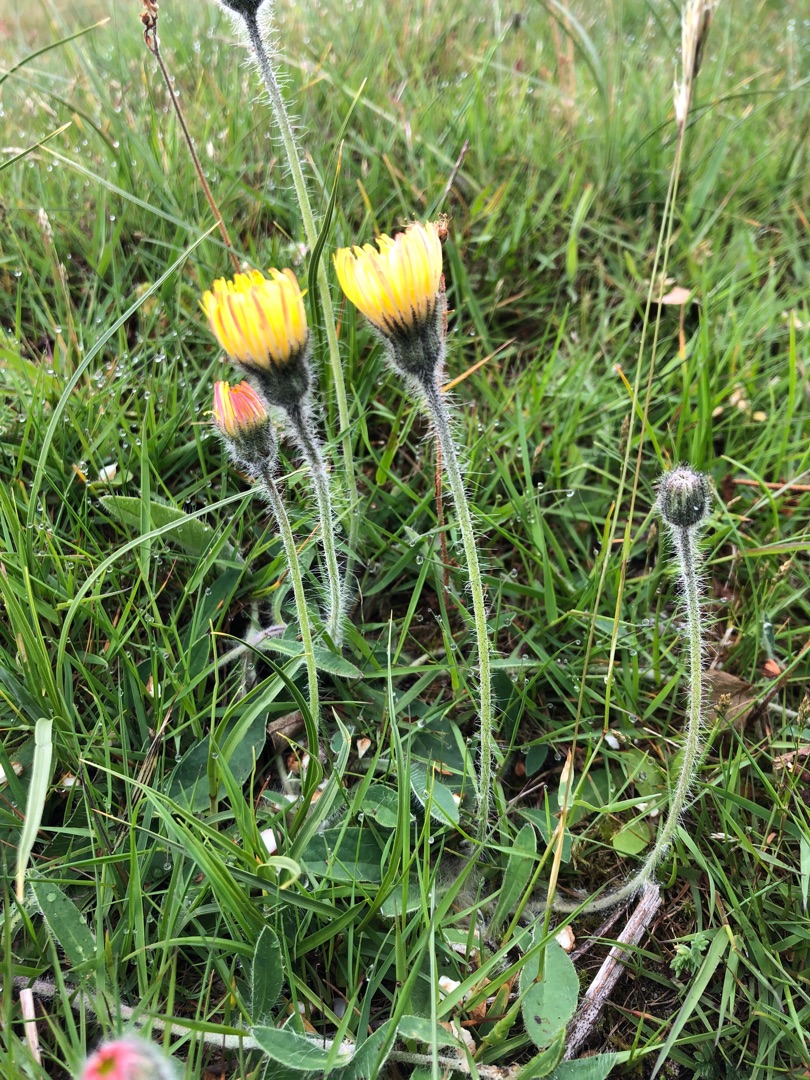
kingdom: Plantae
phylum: Tracheophyta
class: Magnoliopsida
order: Asterales
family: Asteraceae
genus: Pilosella
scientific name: Pilosella officinarum
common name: Håret høgeurt
